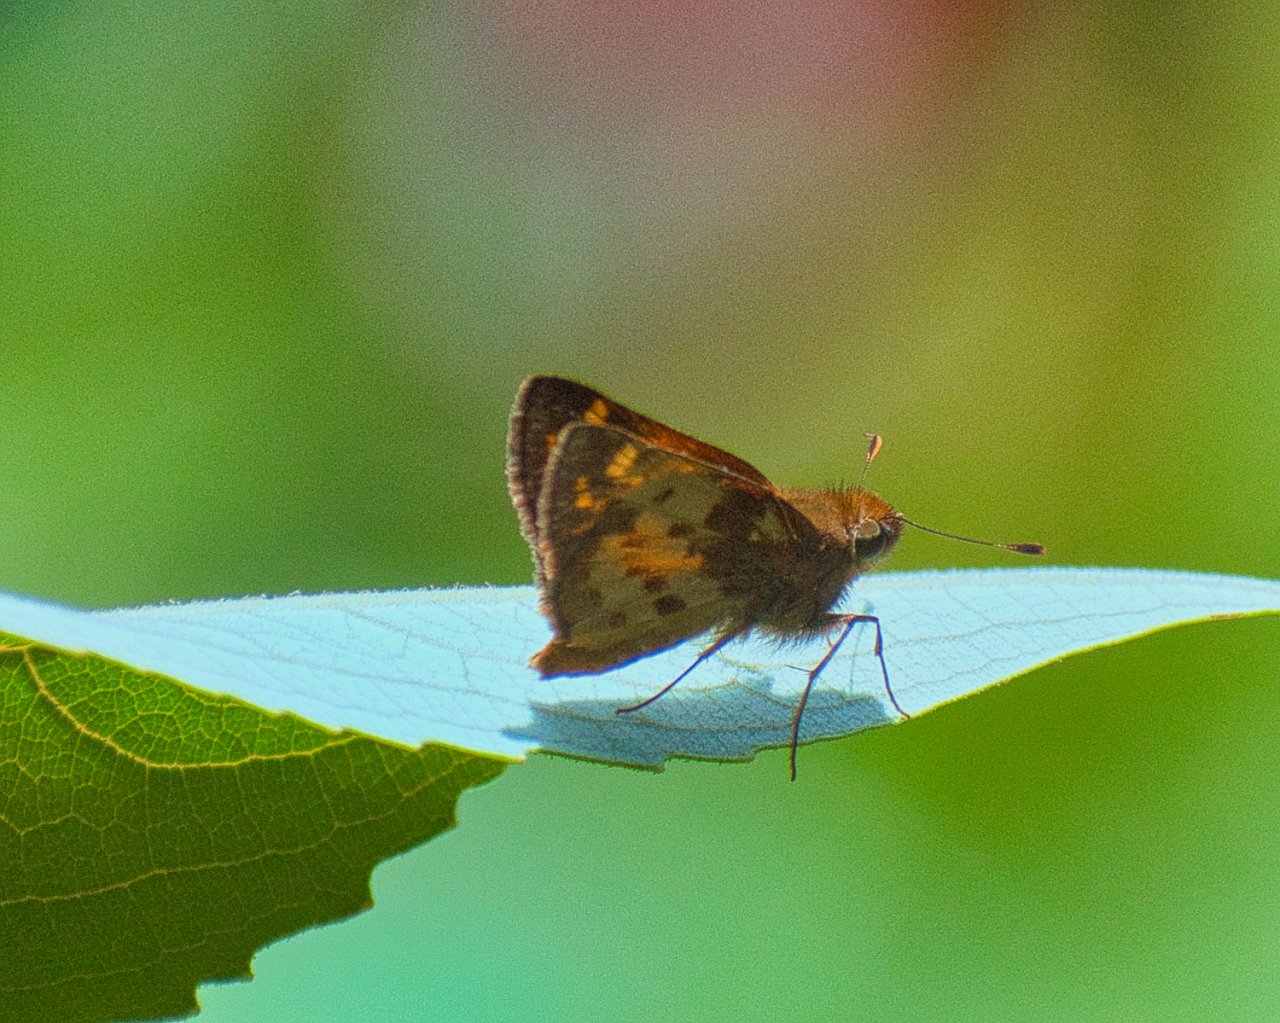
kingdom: Animalia
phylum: Arthropoda
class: Insecta
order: Lepidoptera
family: Hesperiidae
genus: Lon
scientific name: Lon zabulon
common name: Zabulon Skipper
